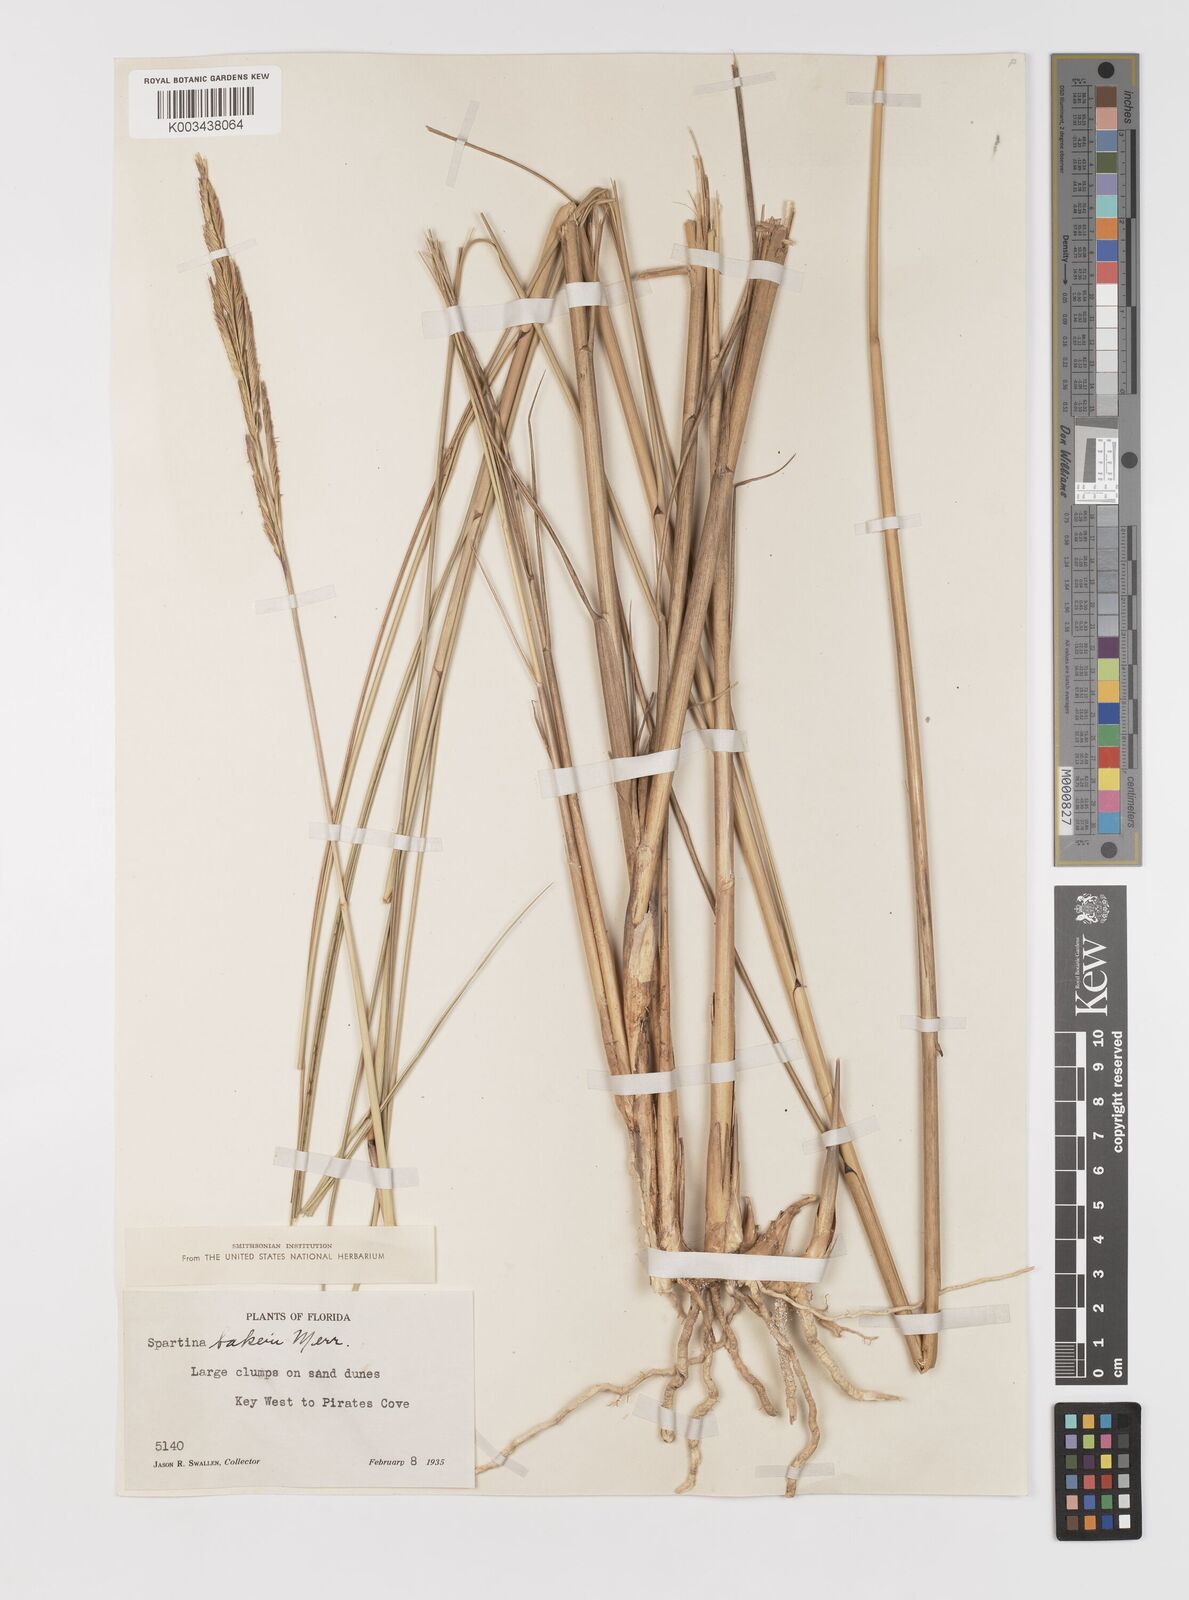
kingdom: Plantae
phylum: Tracheophyta
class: Liliopsida
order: Poales
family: Poaceae
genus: Sporobolus
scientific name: Sporobolus bakeri
